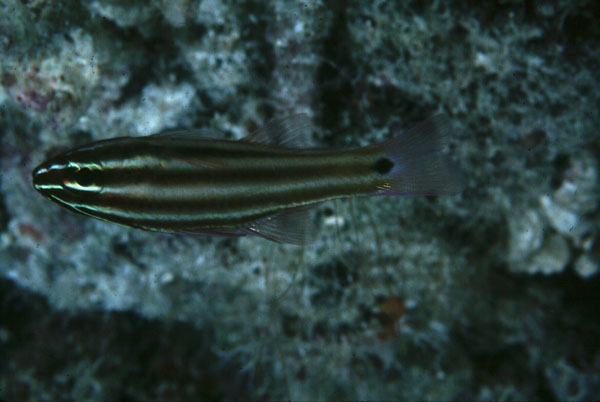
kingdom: Animalia
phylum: Chordata
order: Perciformes
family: Apogonidae
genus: Ostorhinchus
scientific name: Ostorhinchus angustatus
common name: Narrow-striped cardinalfish
